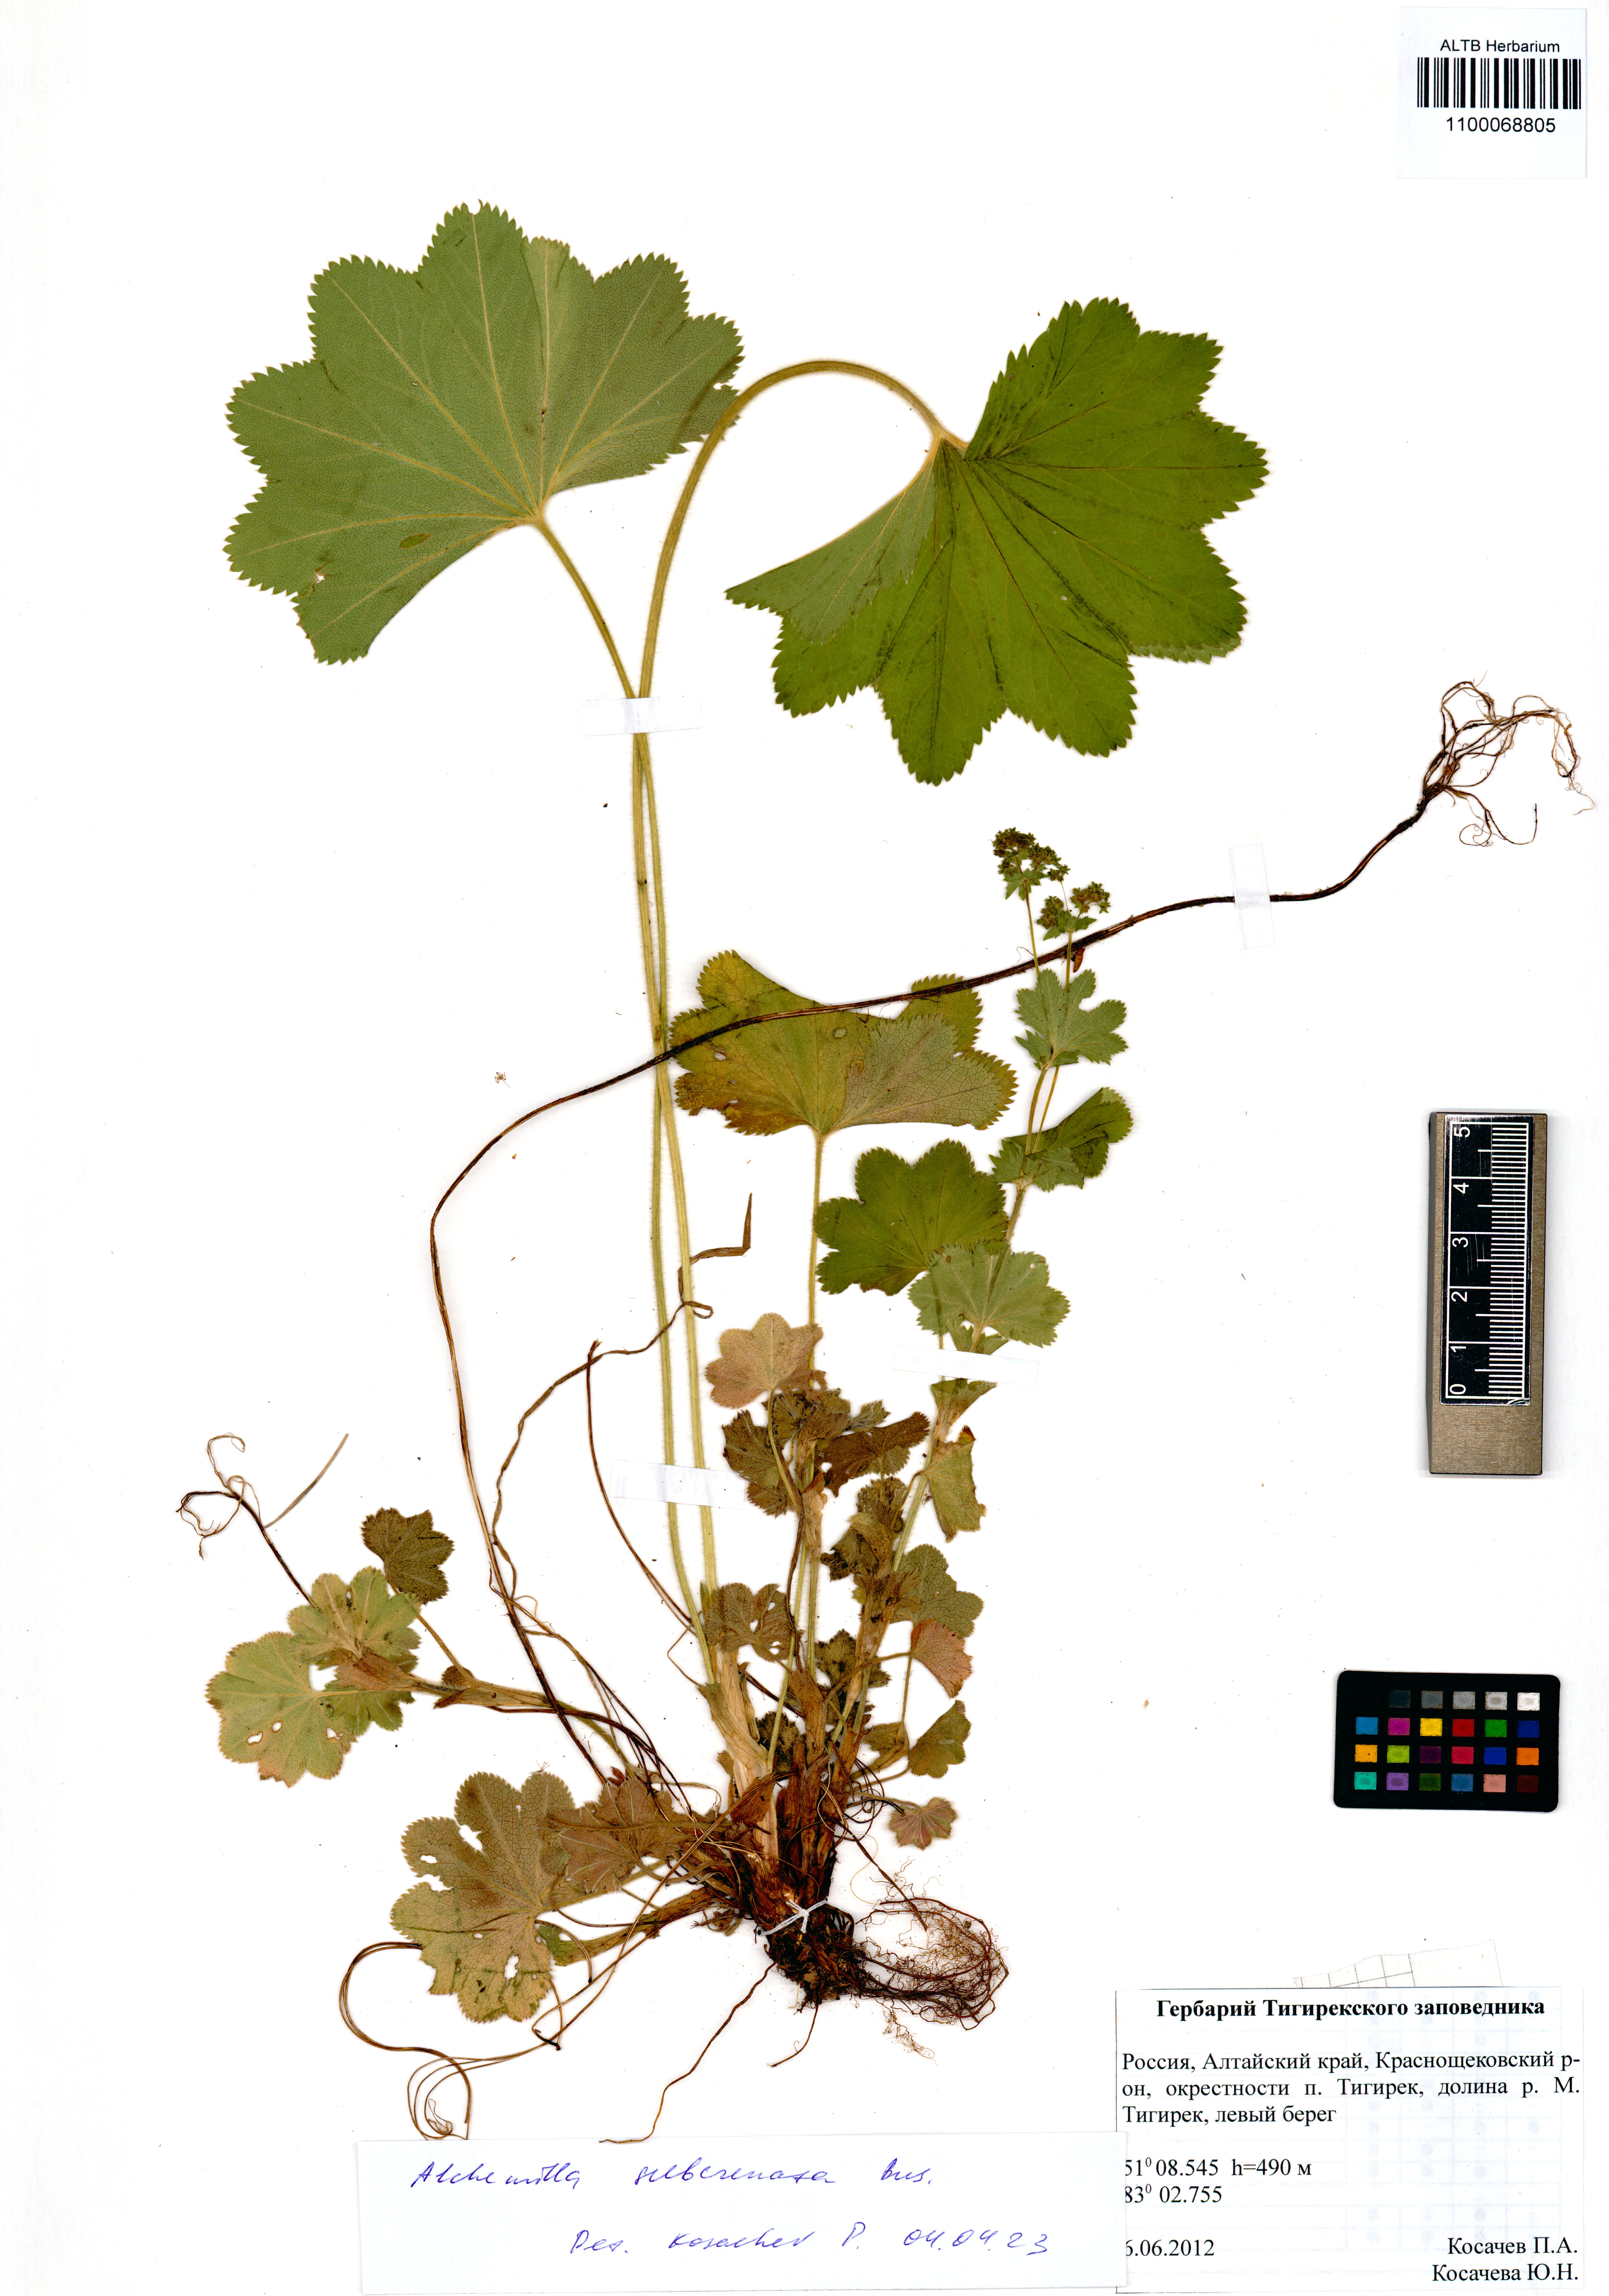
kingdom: Plantae
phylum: Tracheophyta
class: Magnoliopsida
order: Rosales
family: Rosaceae
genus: Alchemilla
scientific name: Alchemilla subcrenata
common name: Broadtooth lady's mantle
